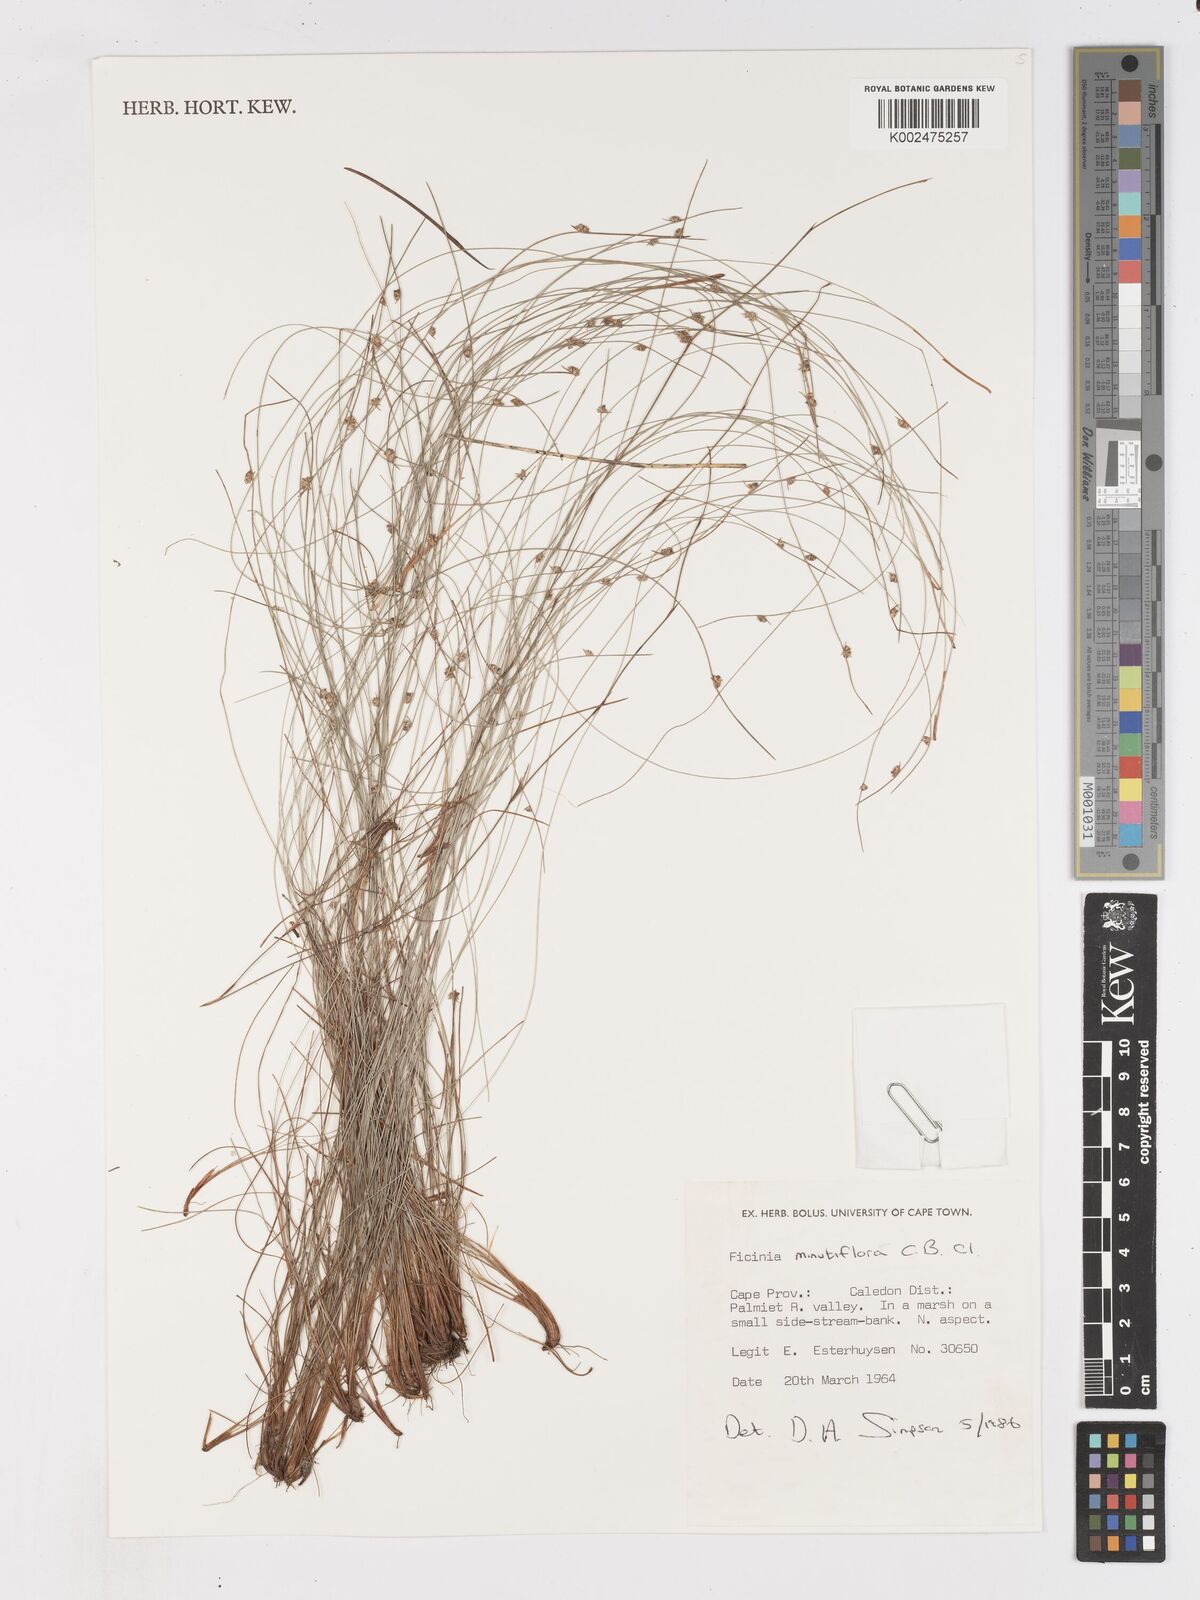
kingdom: Plantae
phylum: Tracheophyta
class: Liliopsida
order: Poales
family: Cyperaceae
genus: Ficinia
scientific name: Ficinia minutiflora
